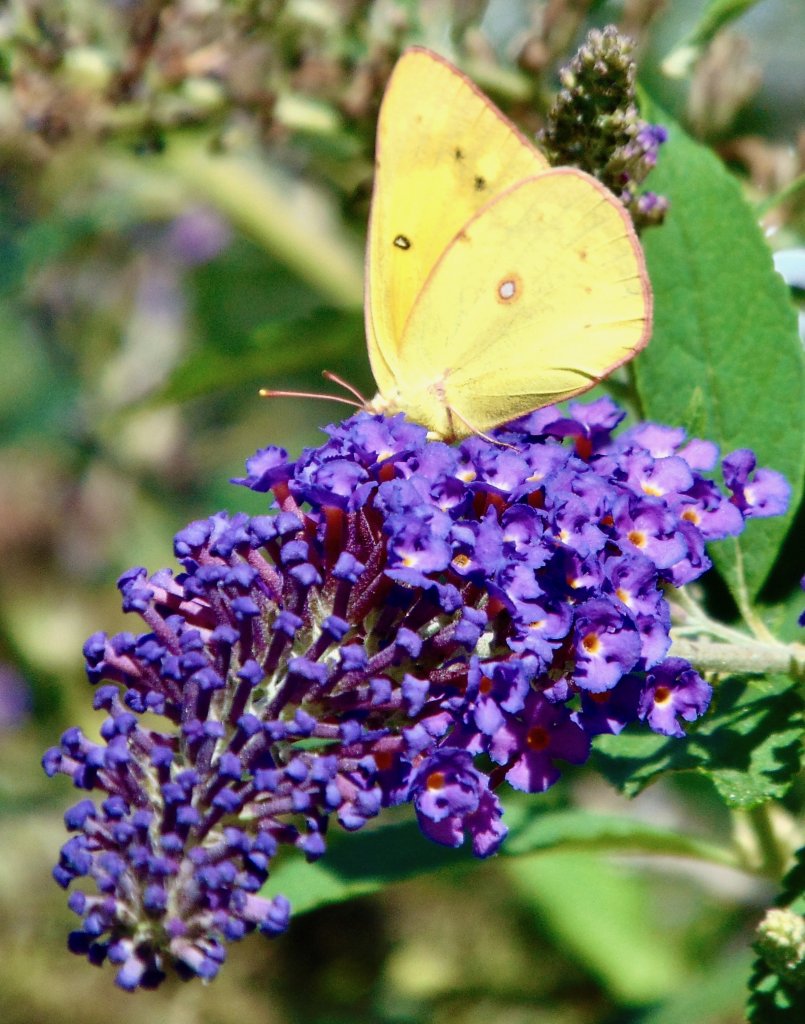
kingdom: Animalia
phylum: Arthropoda
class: Insecta
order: Lepidoptera
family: Pieridae
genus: Colias
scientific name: Colias philodice
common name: Clouded Sulphur
